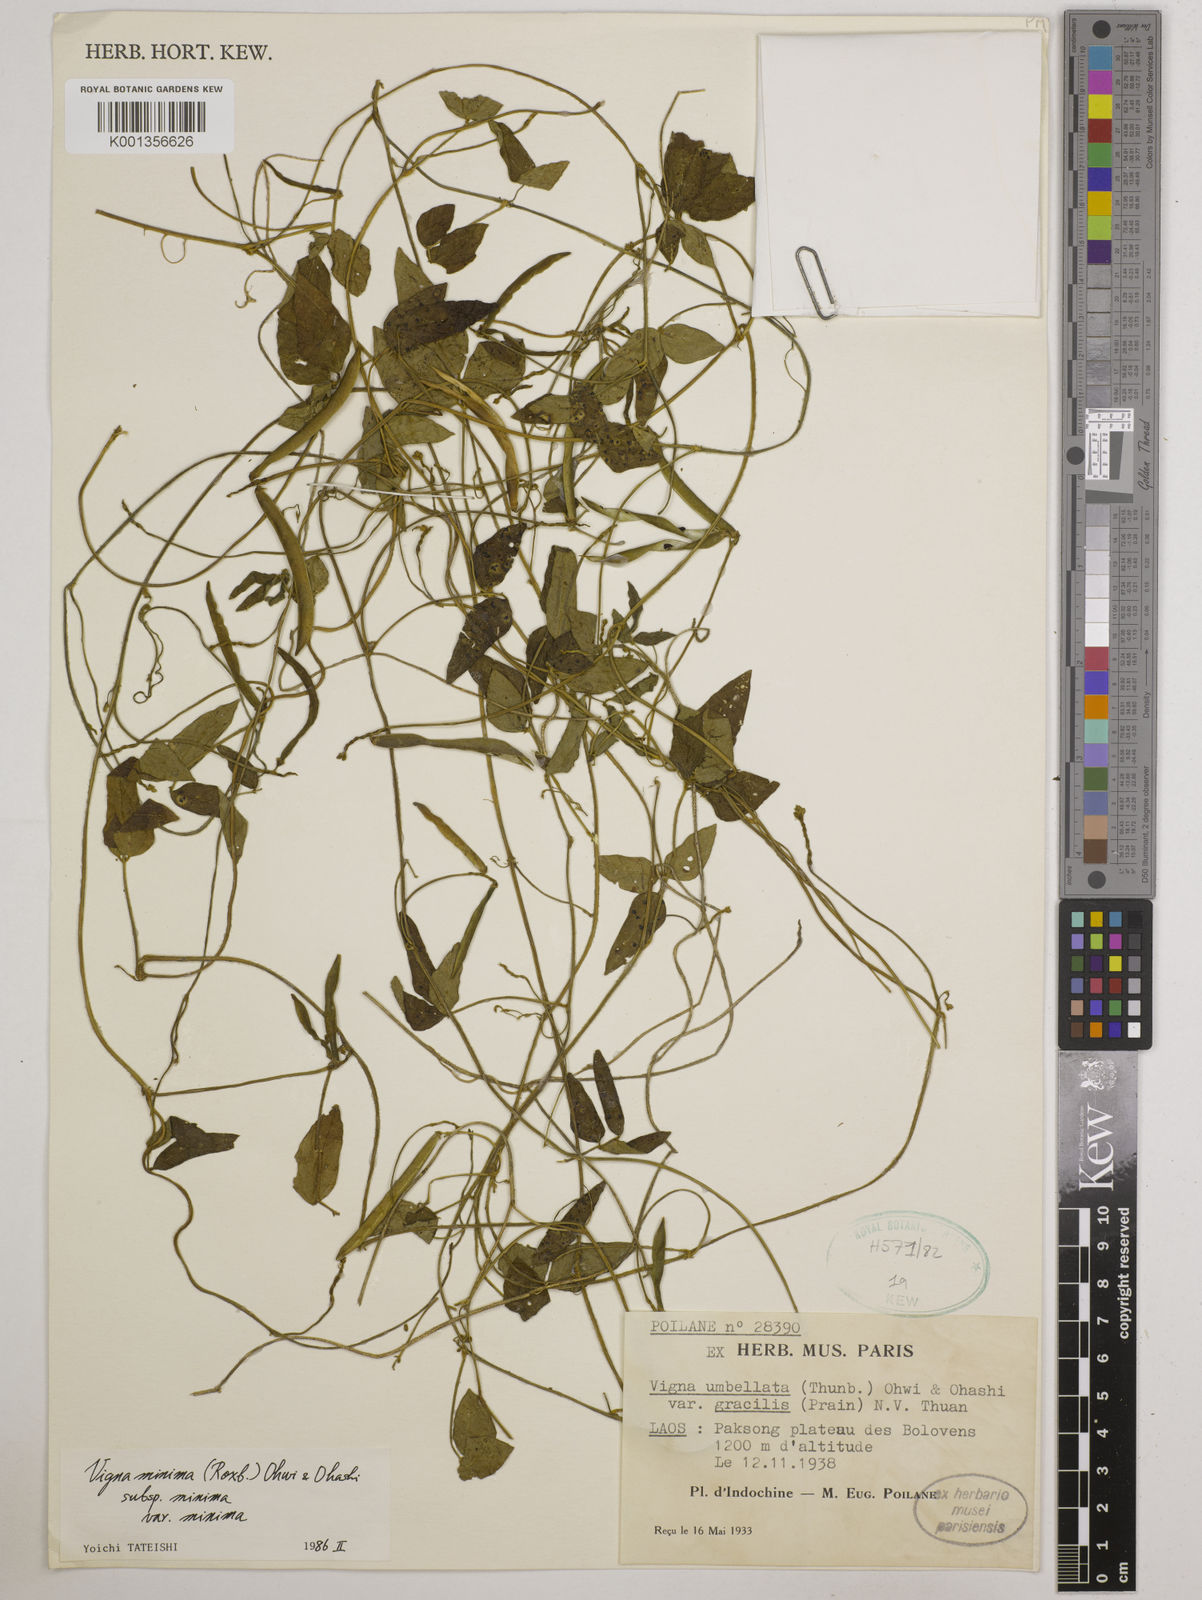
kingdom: Plantae
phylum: Tracheophyta
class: Magnoliopsida
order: Fabales
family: Fabaceae
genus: Vigna
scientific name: Vigna
